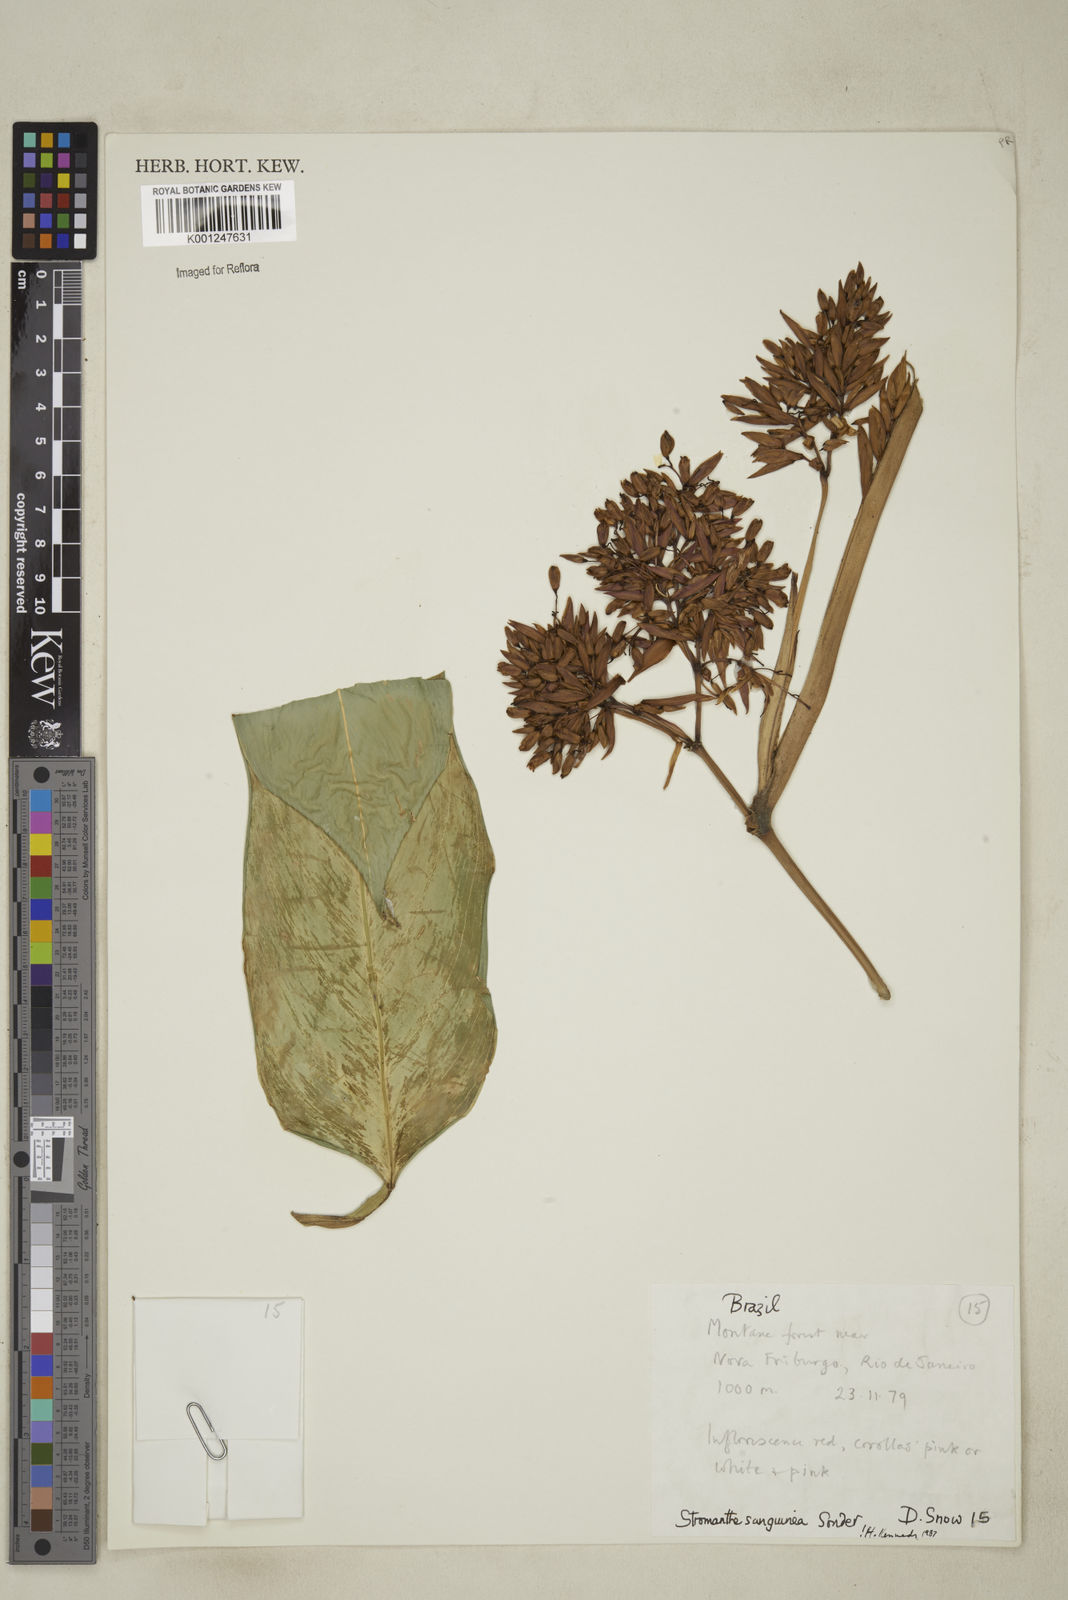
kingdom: Plantae
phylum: Tracheophyta
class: Liliopsida
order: Zingiberales
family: Marantaceae
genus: Stromanthe
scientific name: Stromanthe thalia
